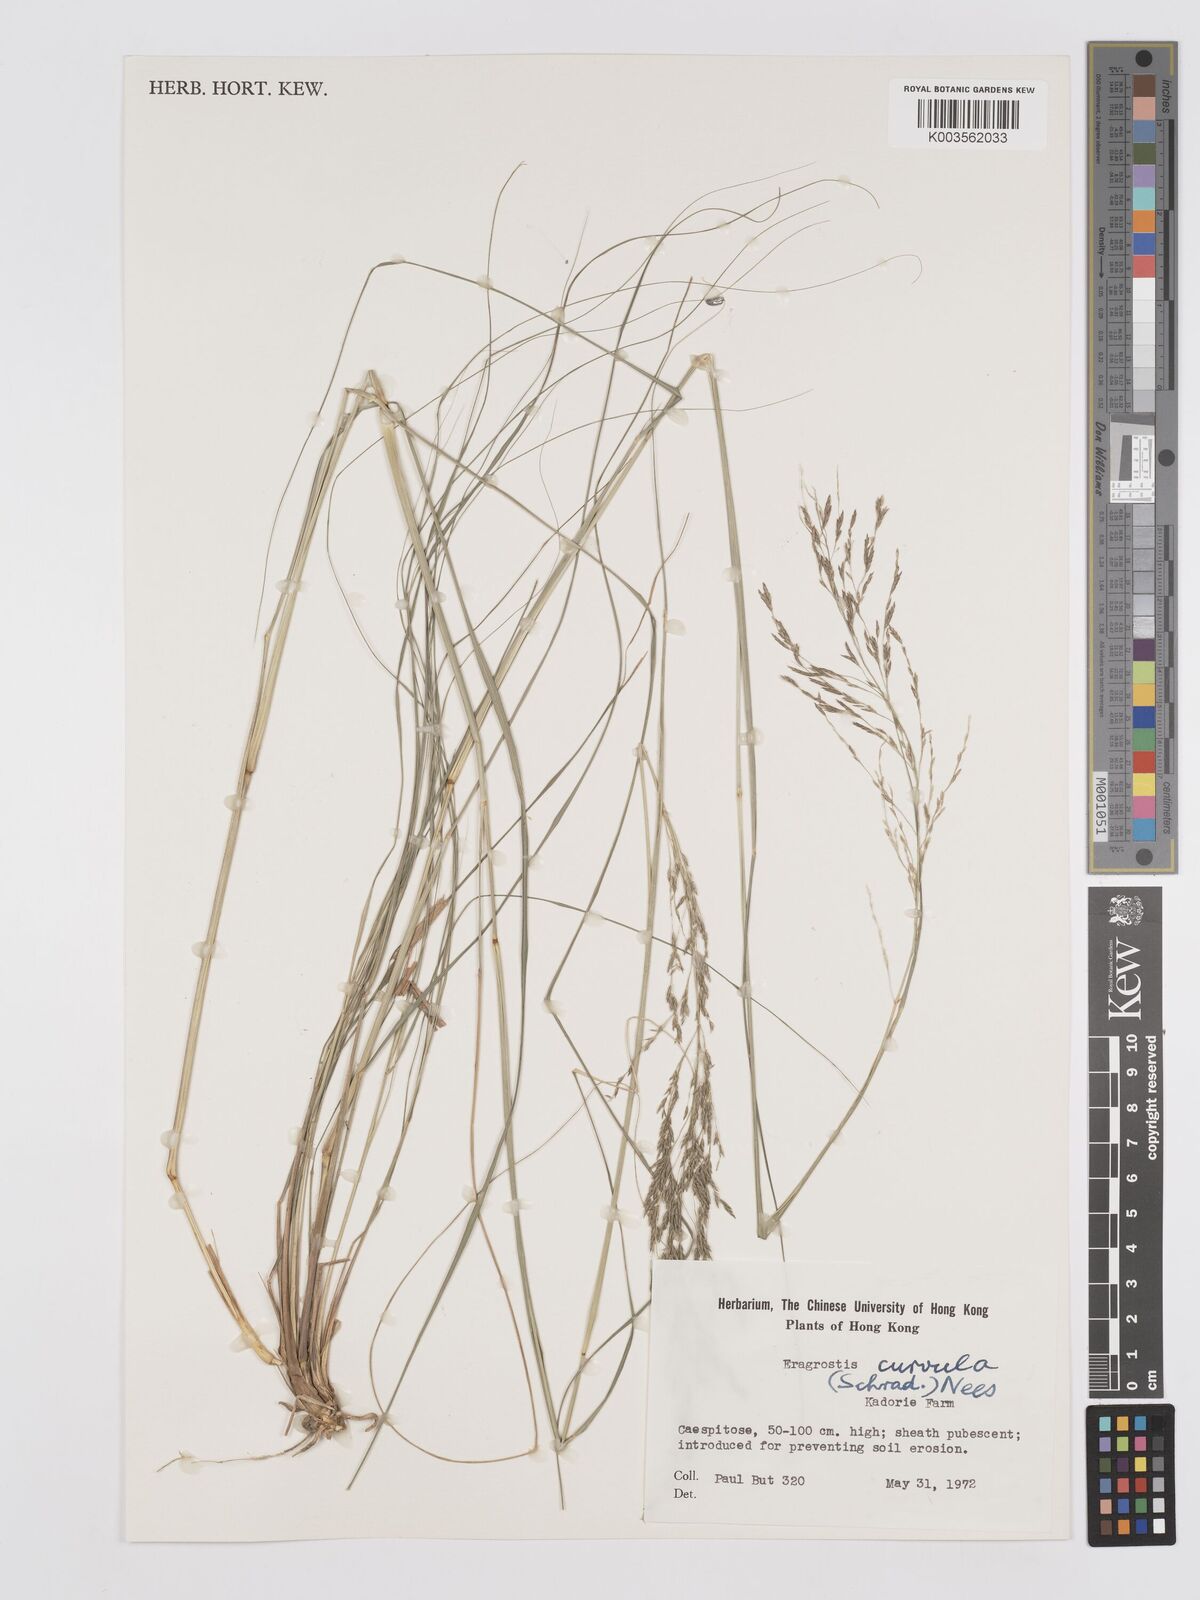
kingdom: Plantae
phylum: Tracheophyta
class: Liliopsida
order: Poales
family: Poaceae
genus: Eragrostis
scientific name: Eragrostis curvula
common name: African love-grass
